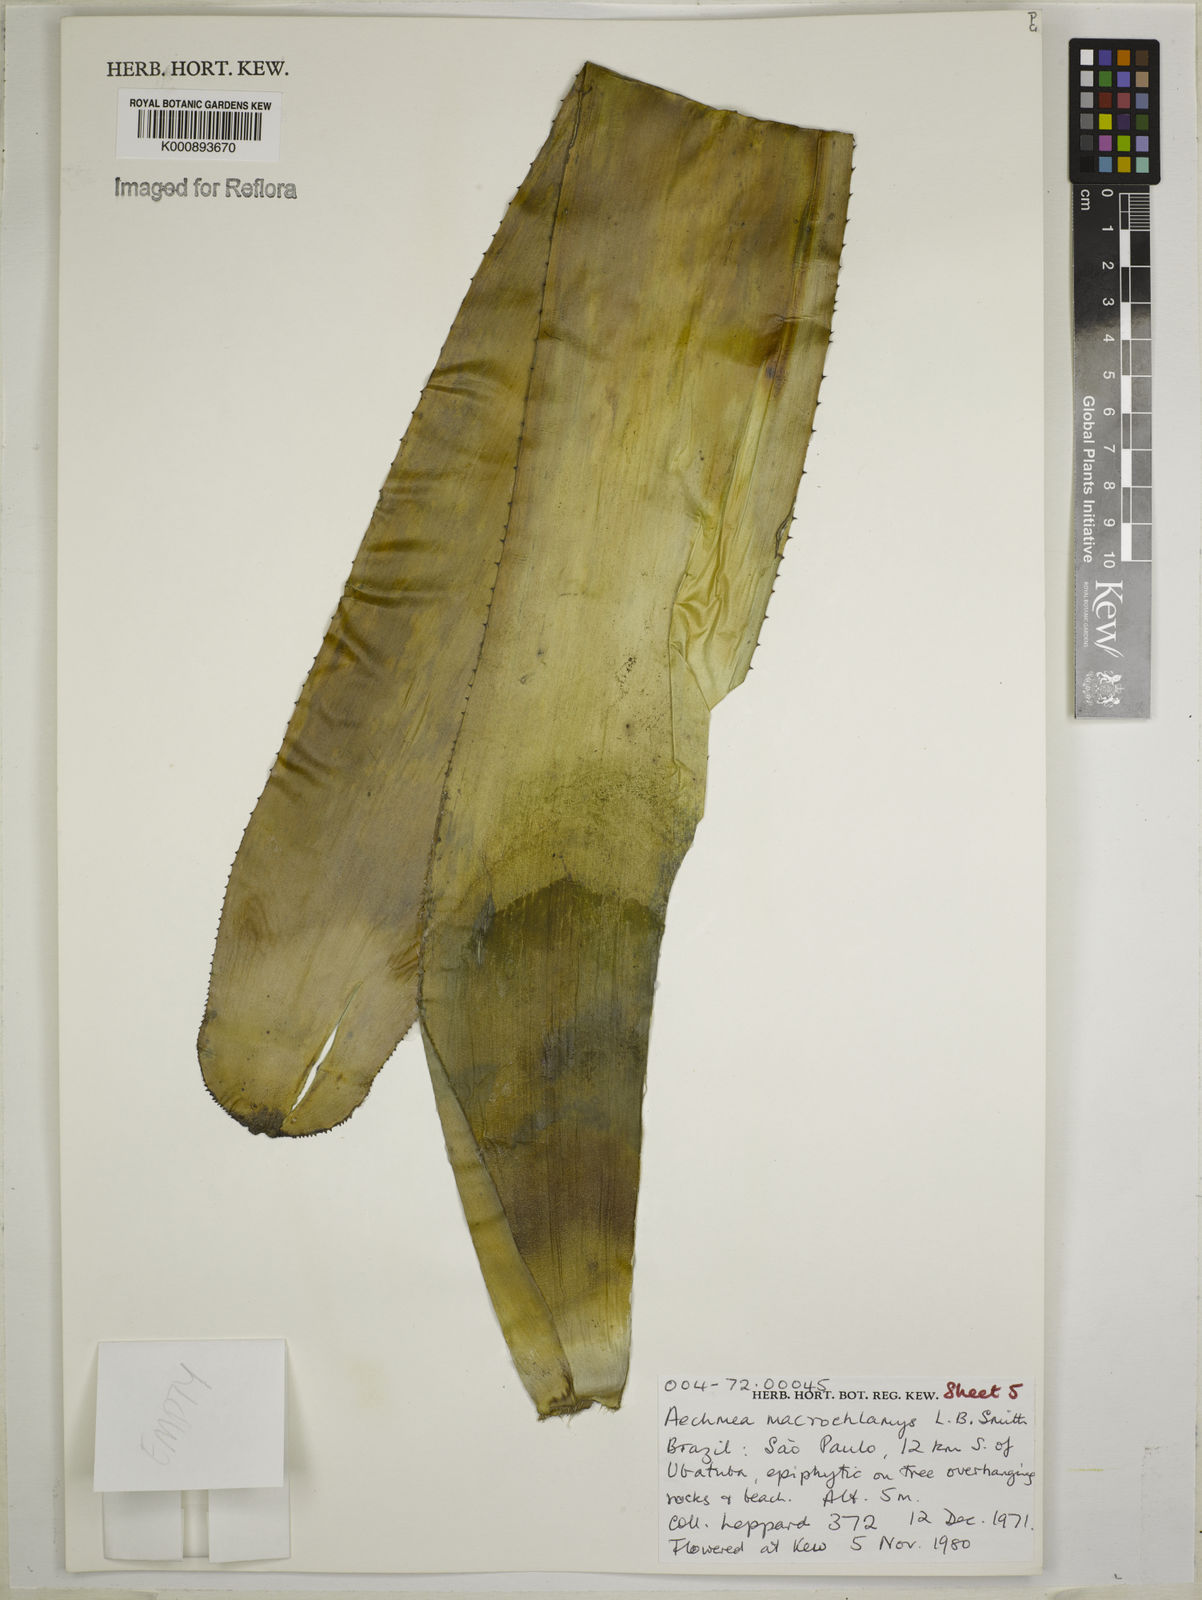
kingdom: Plantae
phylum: Tracheophyta
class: Liliopsida
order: Poales
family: Bromeliaceae
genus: Aechmea
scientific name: Aechmea macrochlamys
